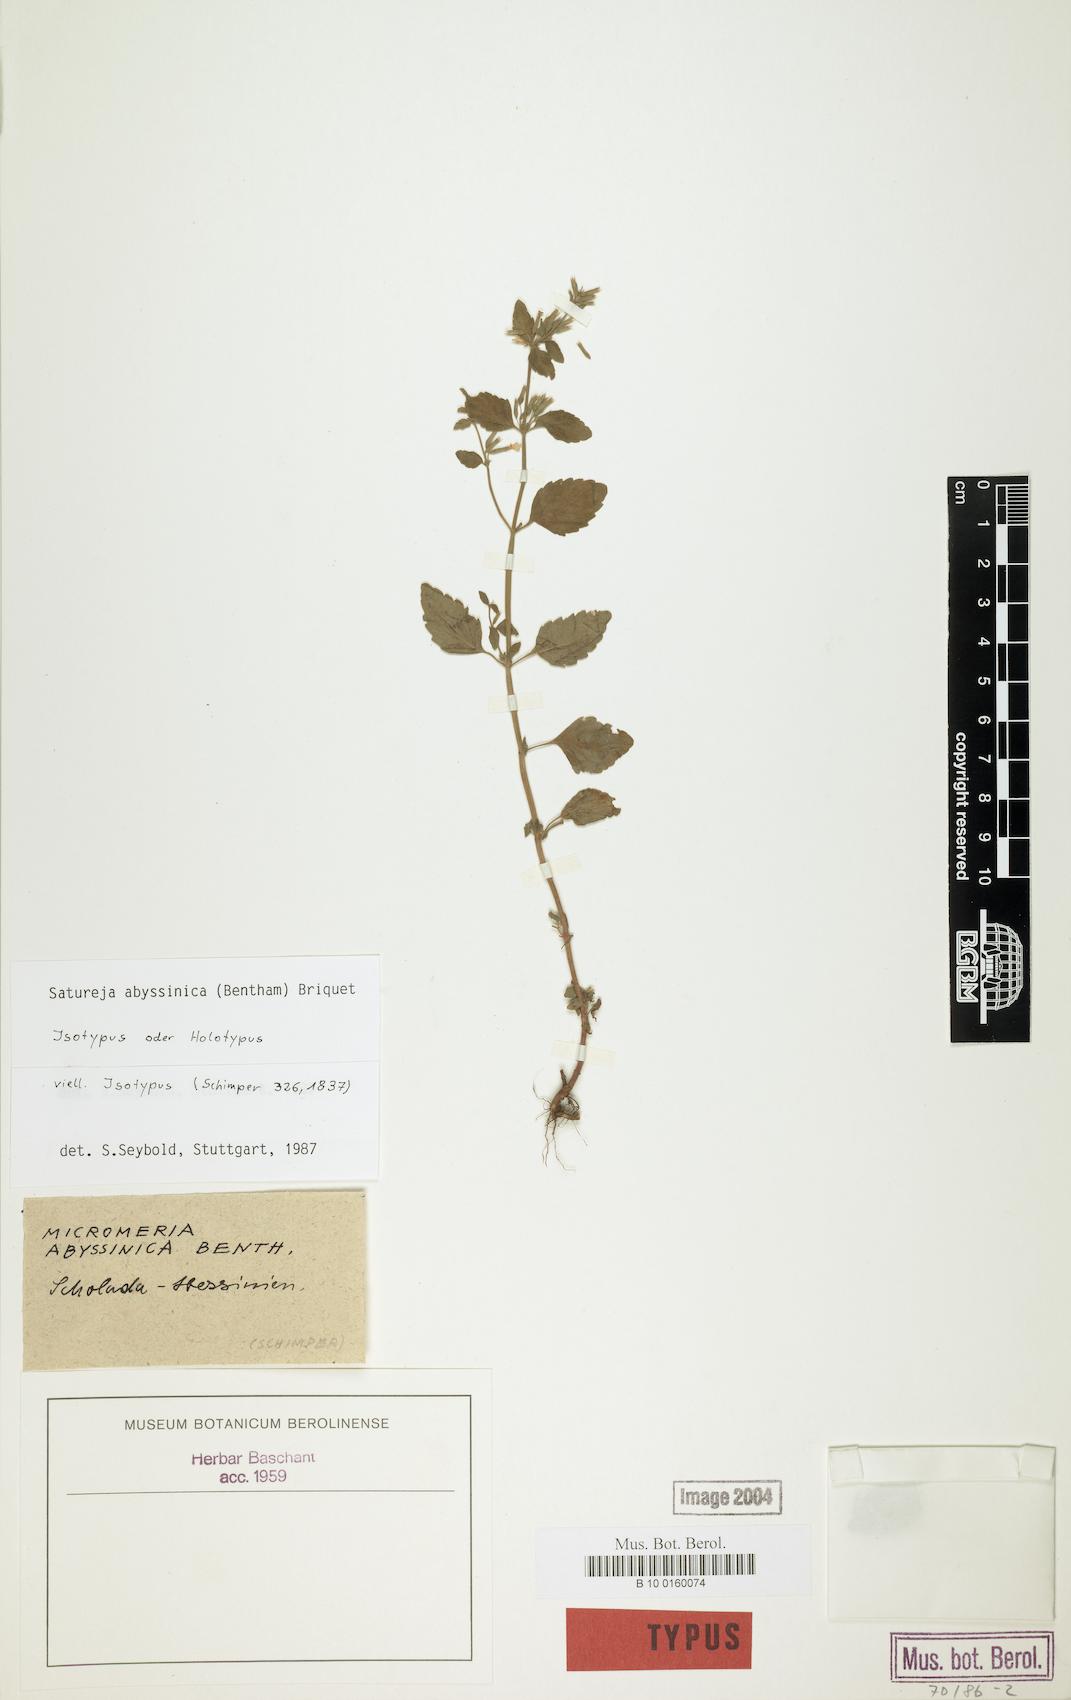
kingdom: Plantae
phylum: Tracheophyta
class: Magnoliopsida
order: Lamiales
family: Lamiaceae
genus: Clinopodium
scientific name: Clinopodium abyssinicum
